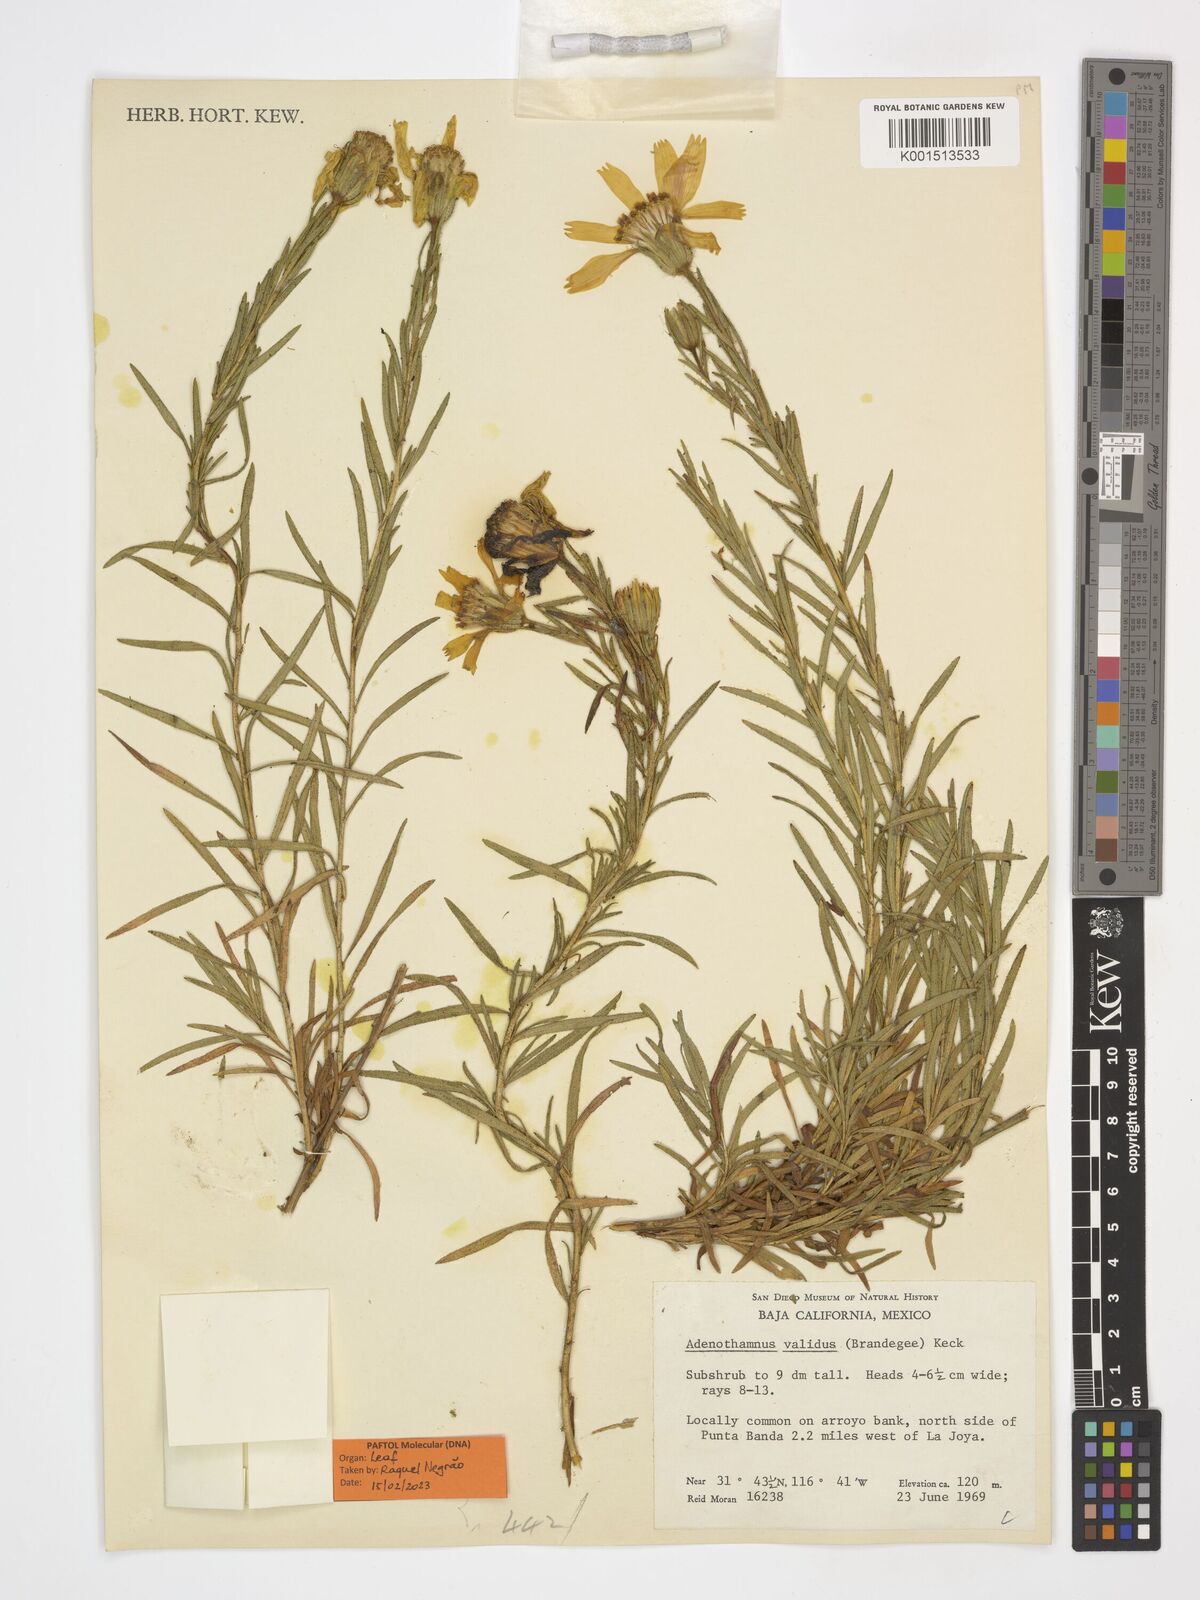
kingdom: Plantae
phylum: Tracheophyta
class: Magnoliopsida
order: Asterales
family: Asteraceae
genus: Adenothamnus
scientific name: Adenothamnus validus
